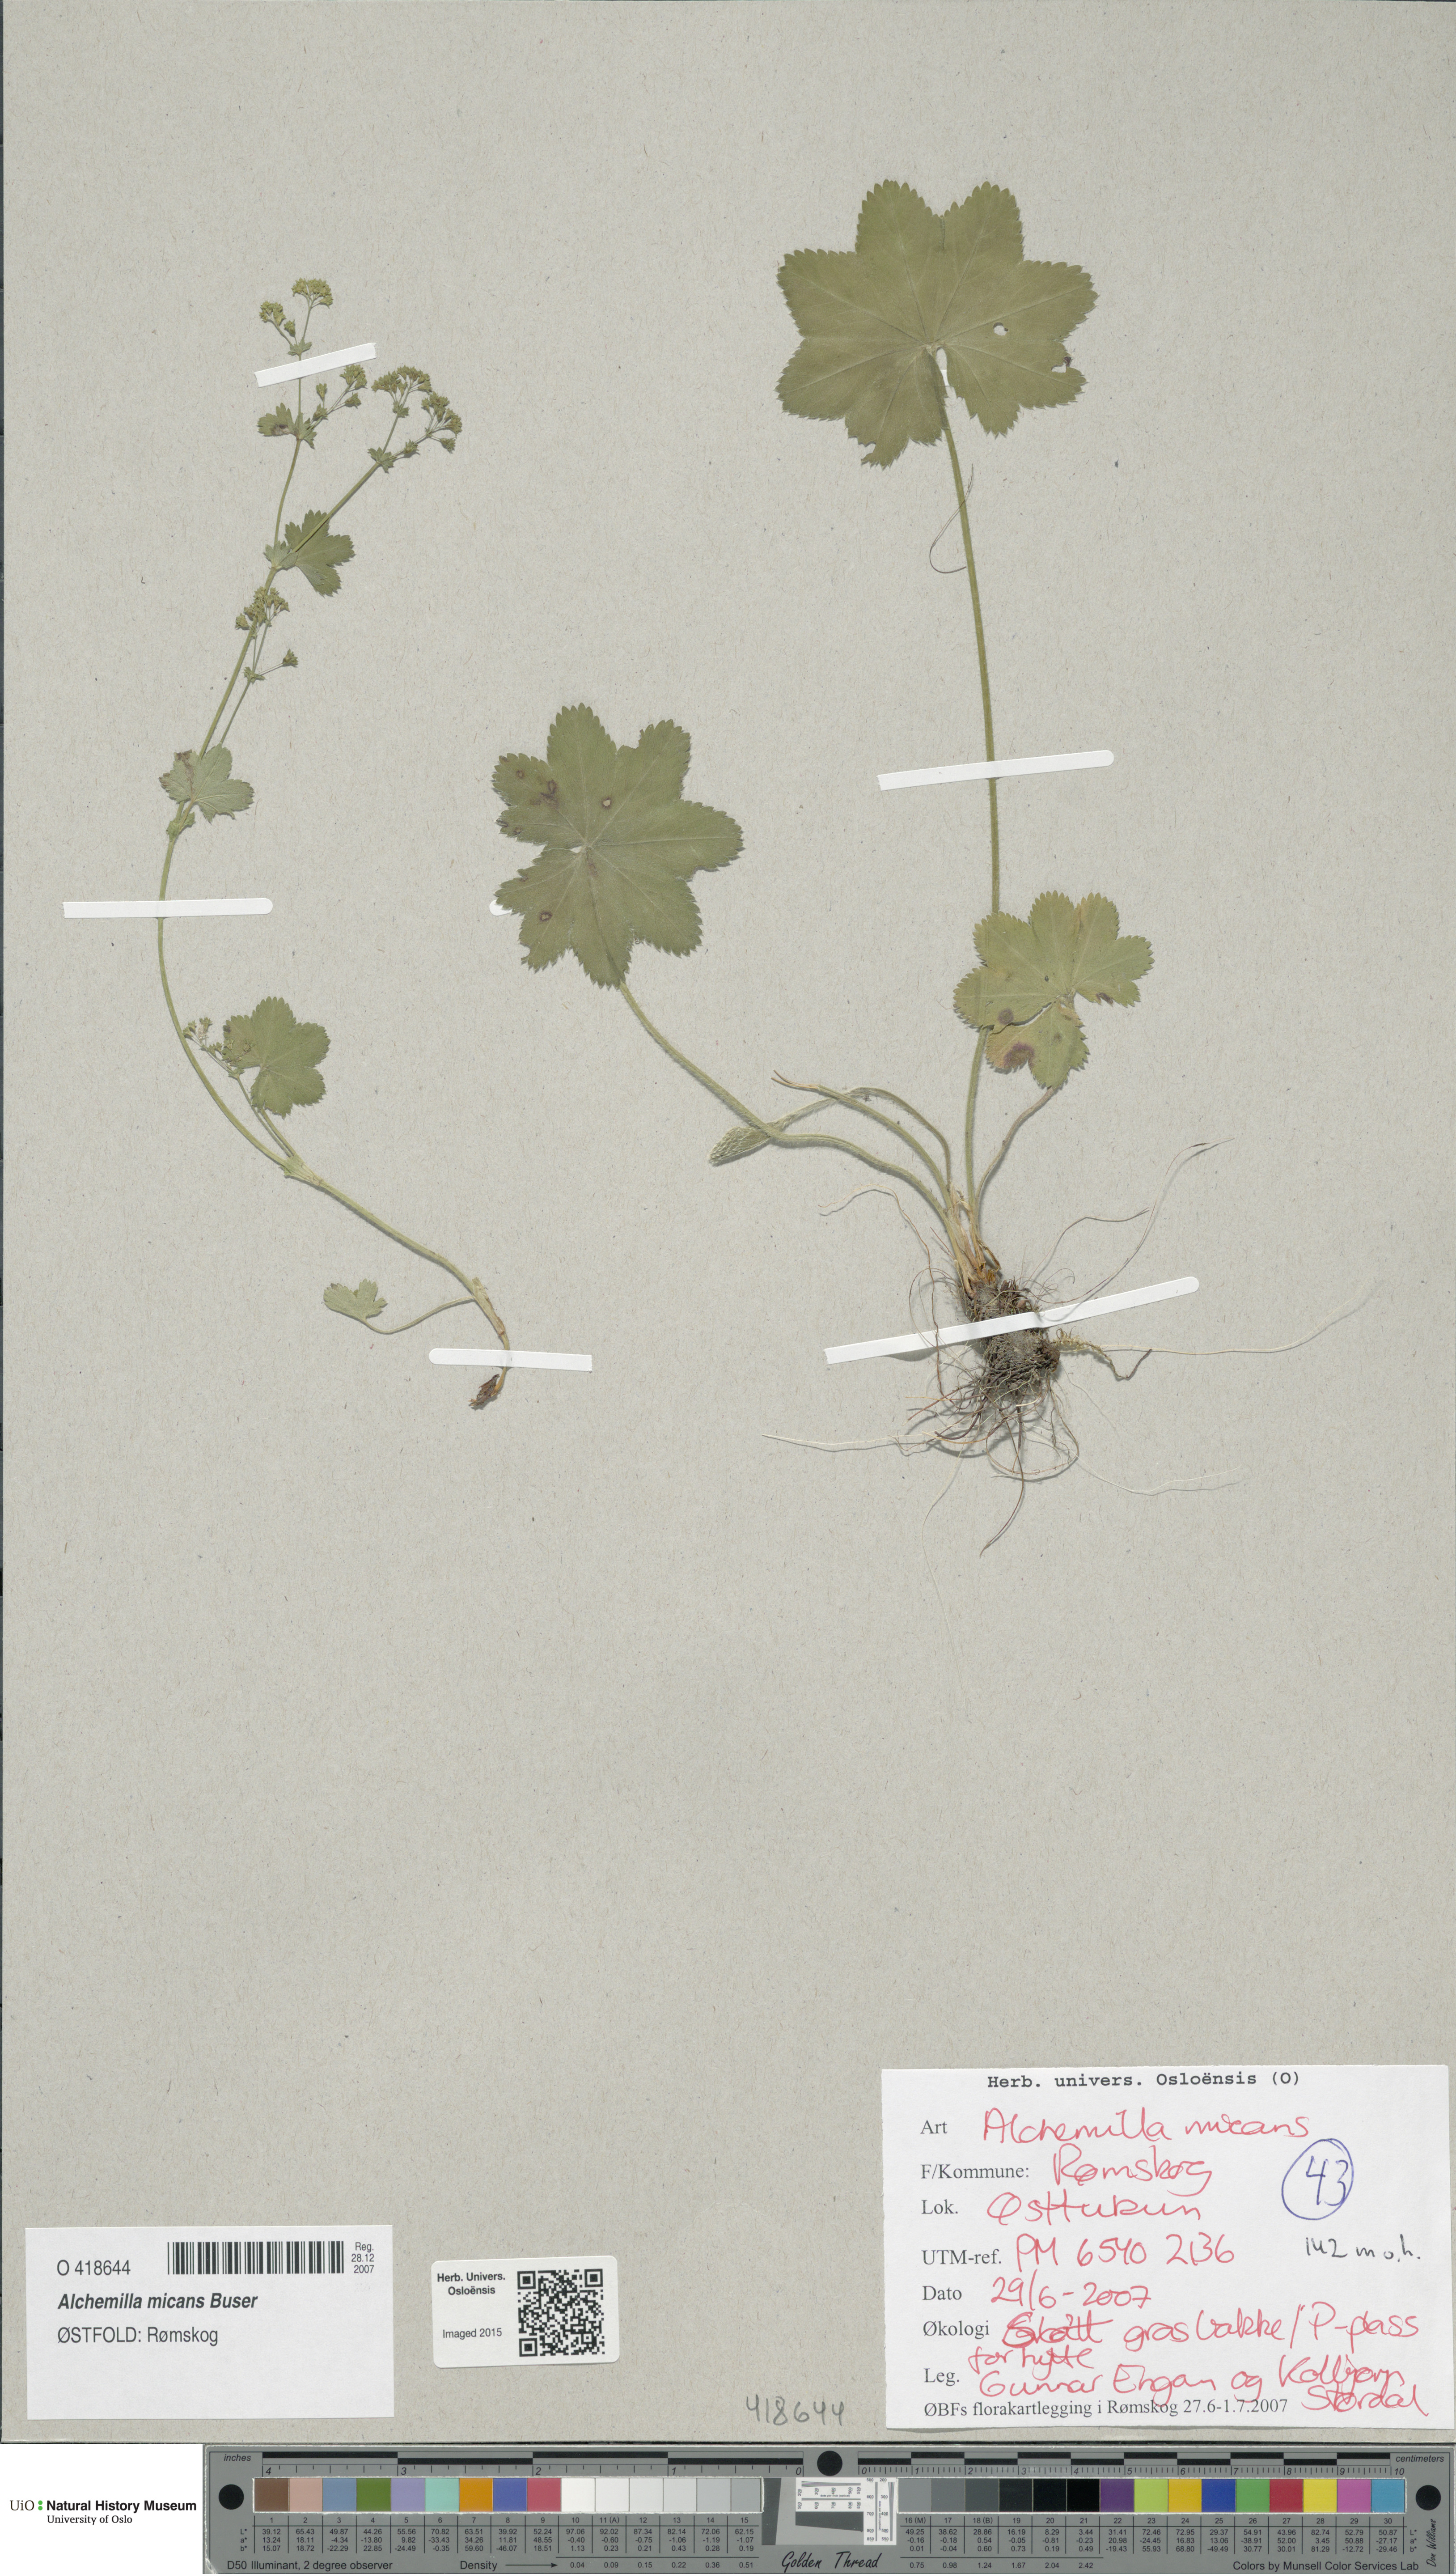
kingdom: Plantae
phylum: Tracheophyta
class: Magnoliopsida
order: Rosales
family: Rosaceae
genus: Alchemilla
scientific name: Alchemilla micans
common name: Gleaming lady's mantle
